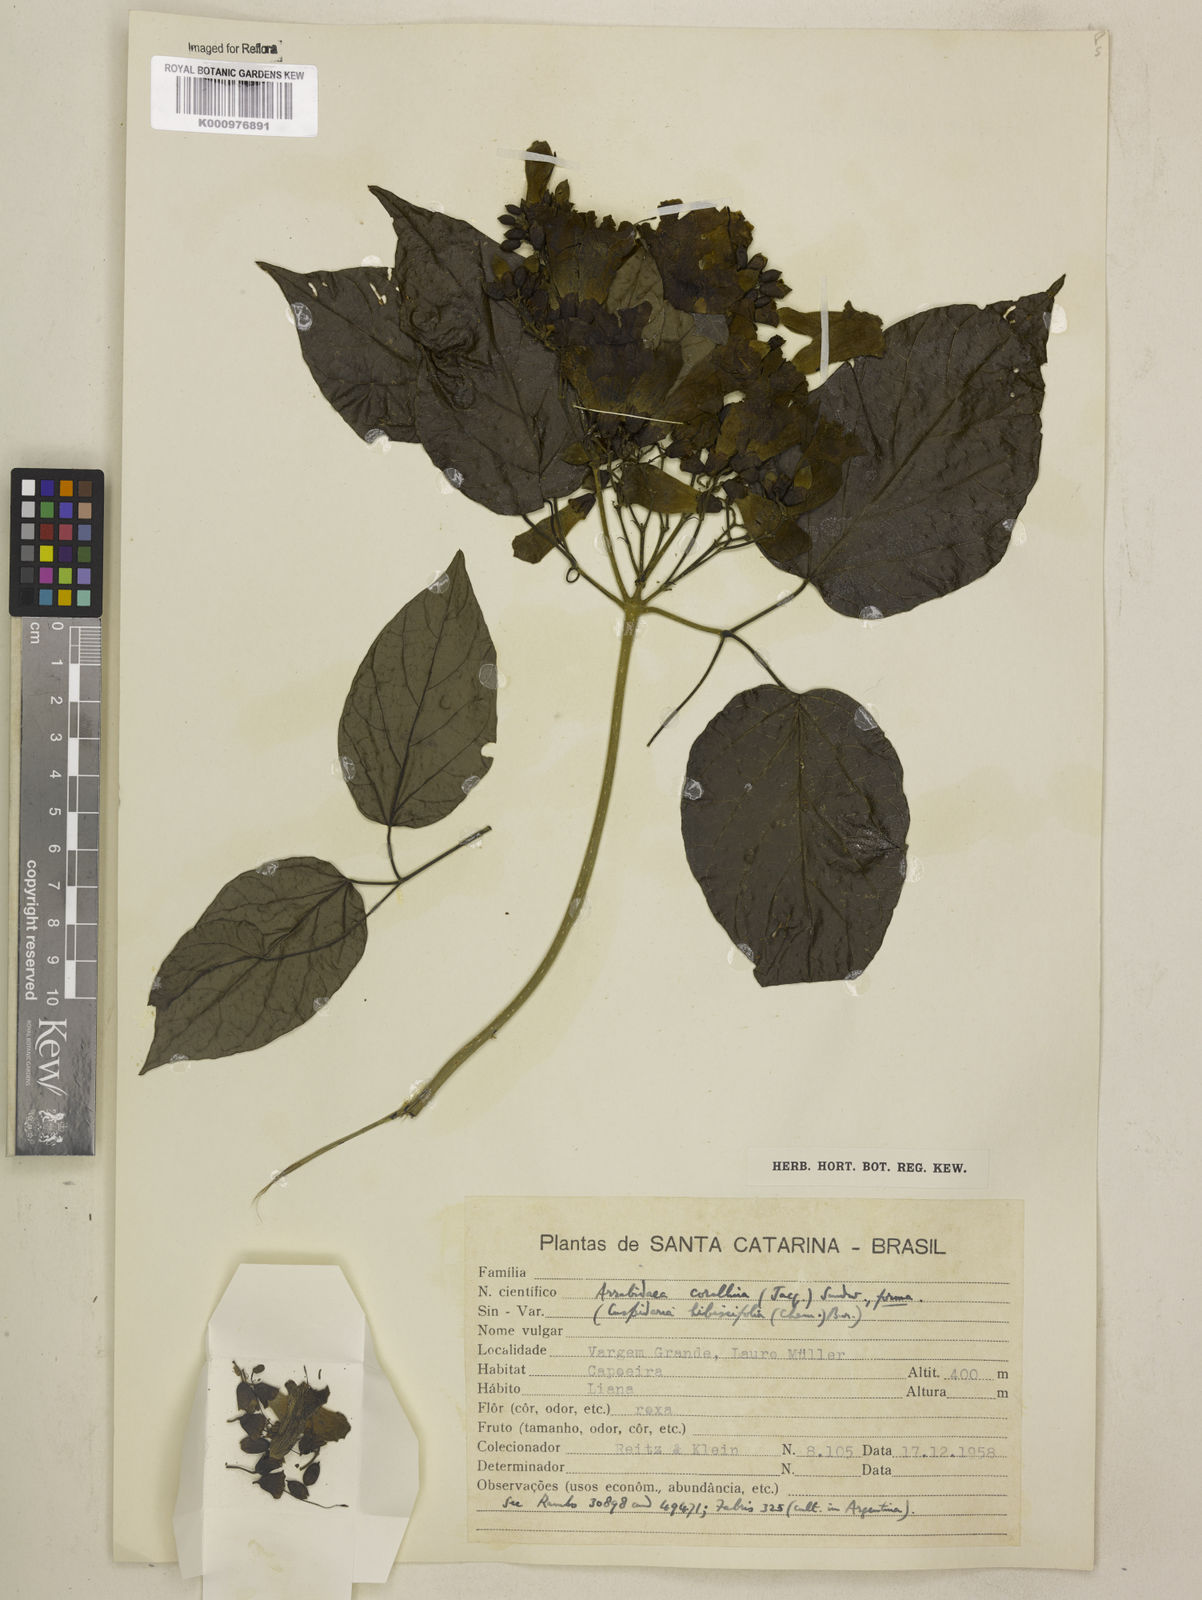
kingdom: Plantae
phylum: Tracheophyta
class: Magnoliopsida
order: Lamiales
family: Bignoniaceae
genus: Tanaecium
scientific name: Tanaecium dichotomum
